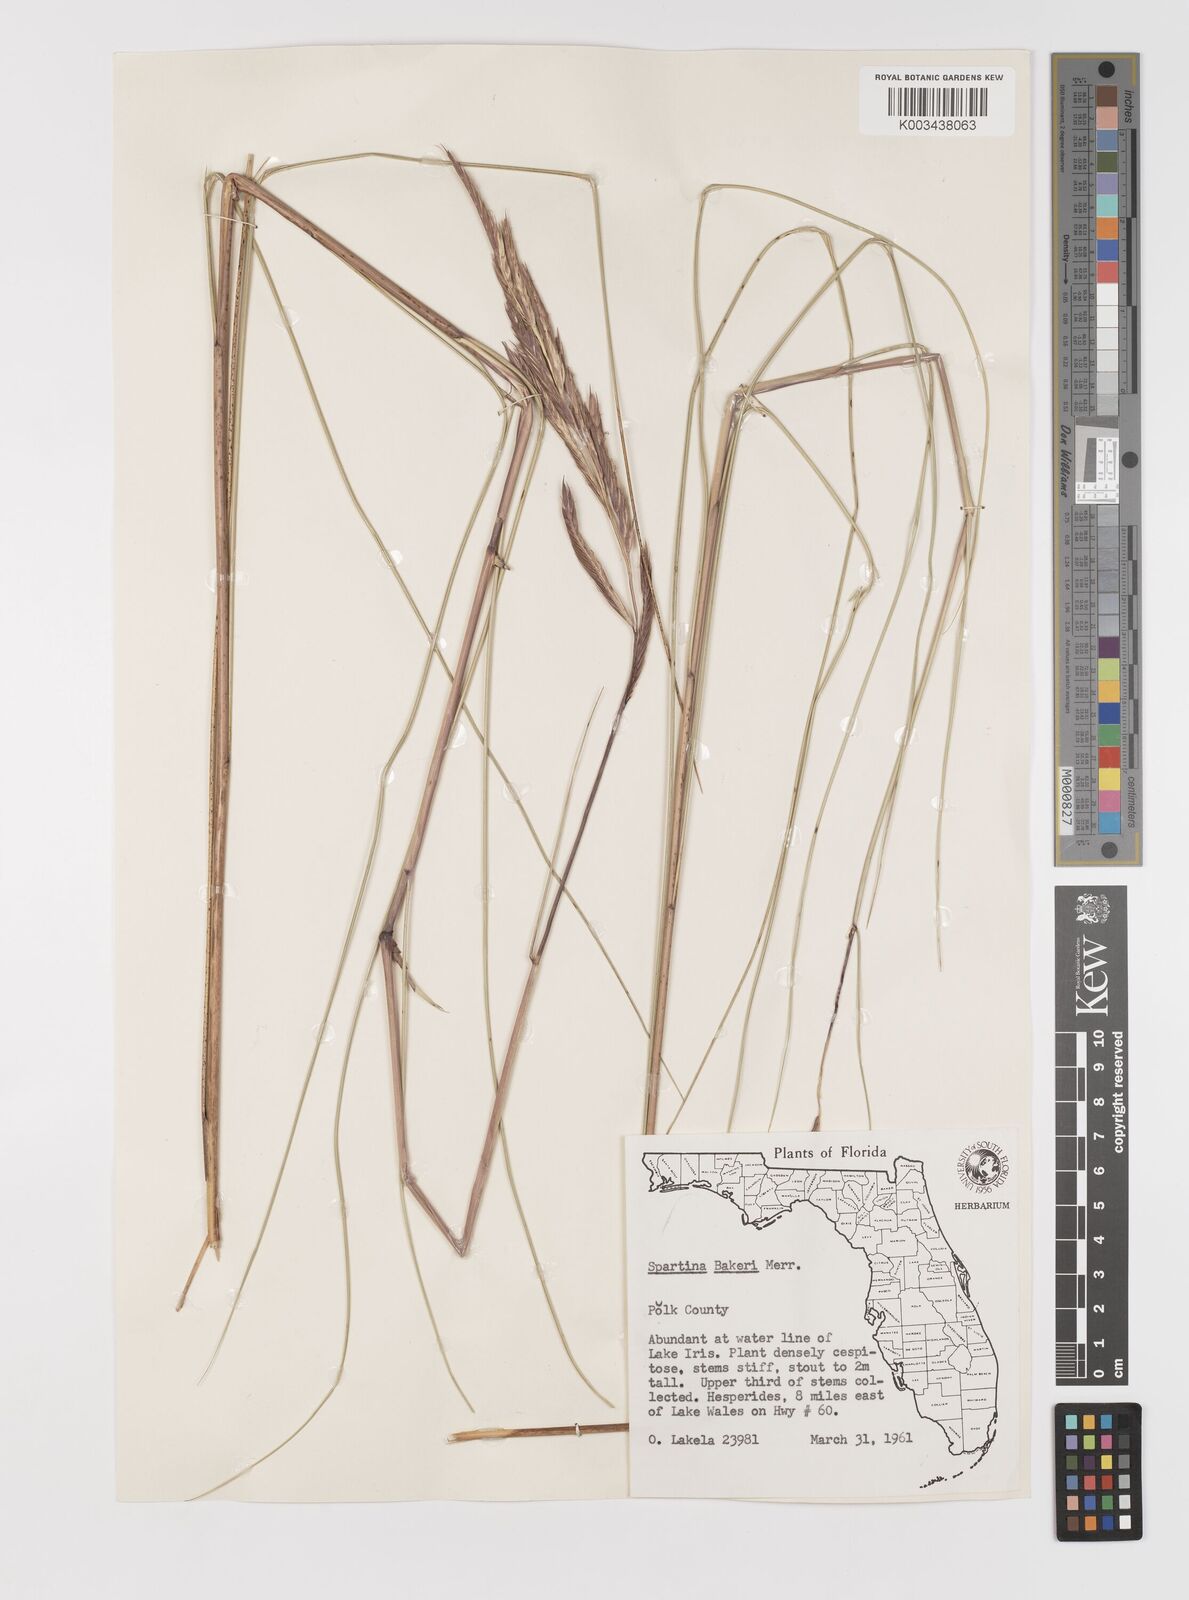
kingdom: Plantae
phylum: Tracheophyta
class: Liliopsida
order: Poales
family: Poaceae
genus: Sporobolus
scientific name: Sporobolus bakeri
